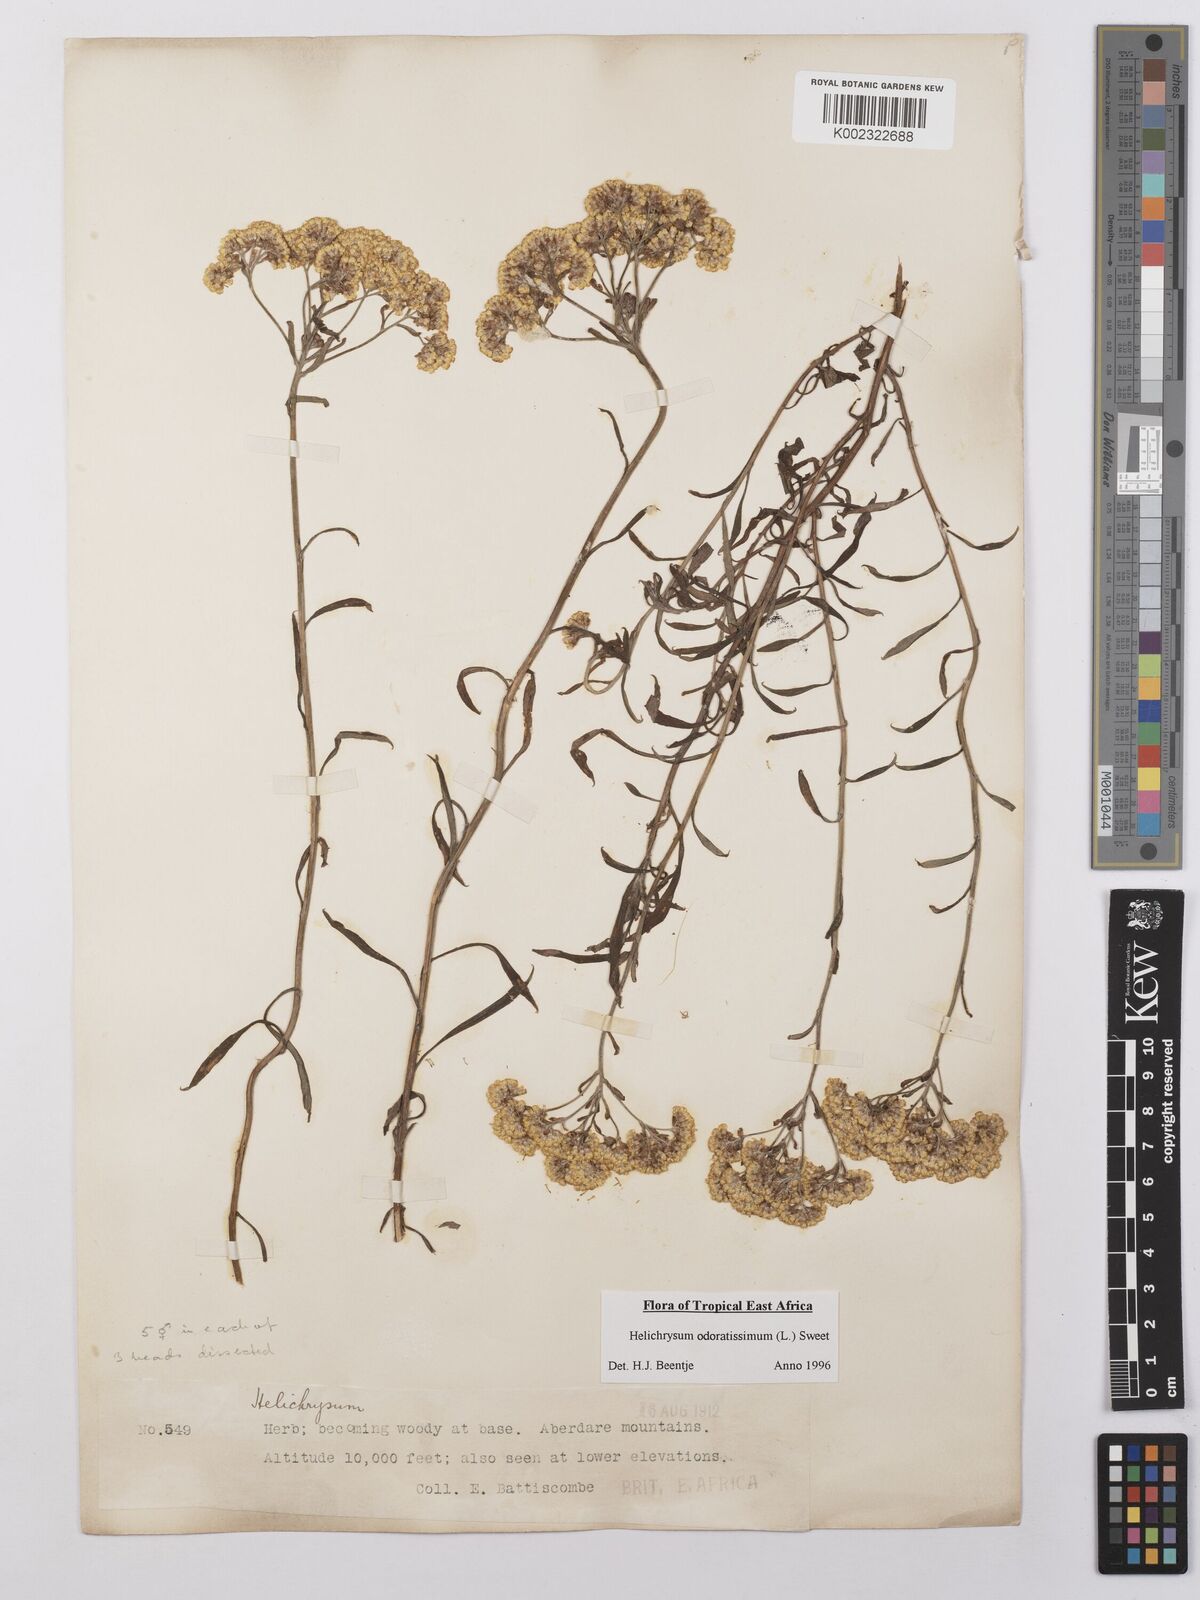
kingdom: Plantae
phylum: Tracheophyta
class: Magnoliopsida
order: Asterales
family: Asteraceae
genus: Helichrysum
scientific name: Helichrysum odoratissimum
